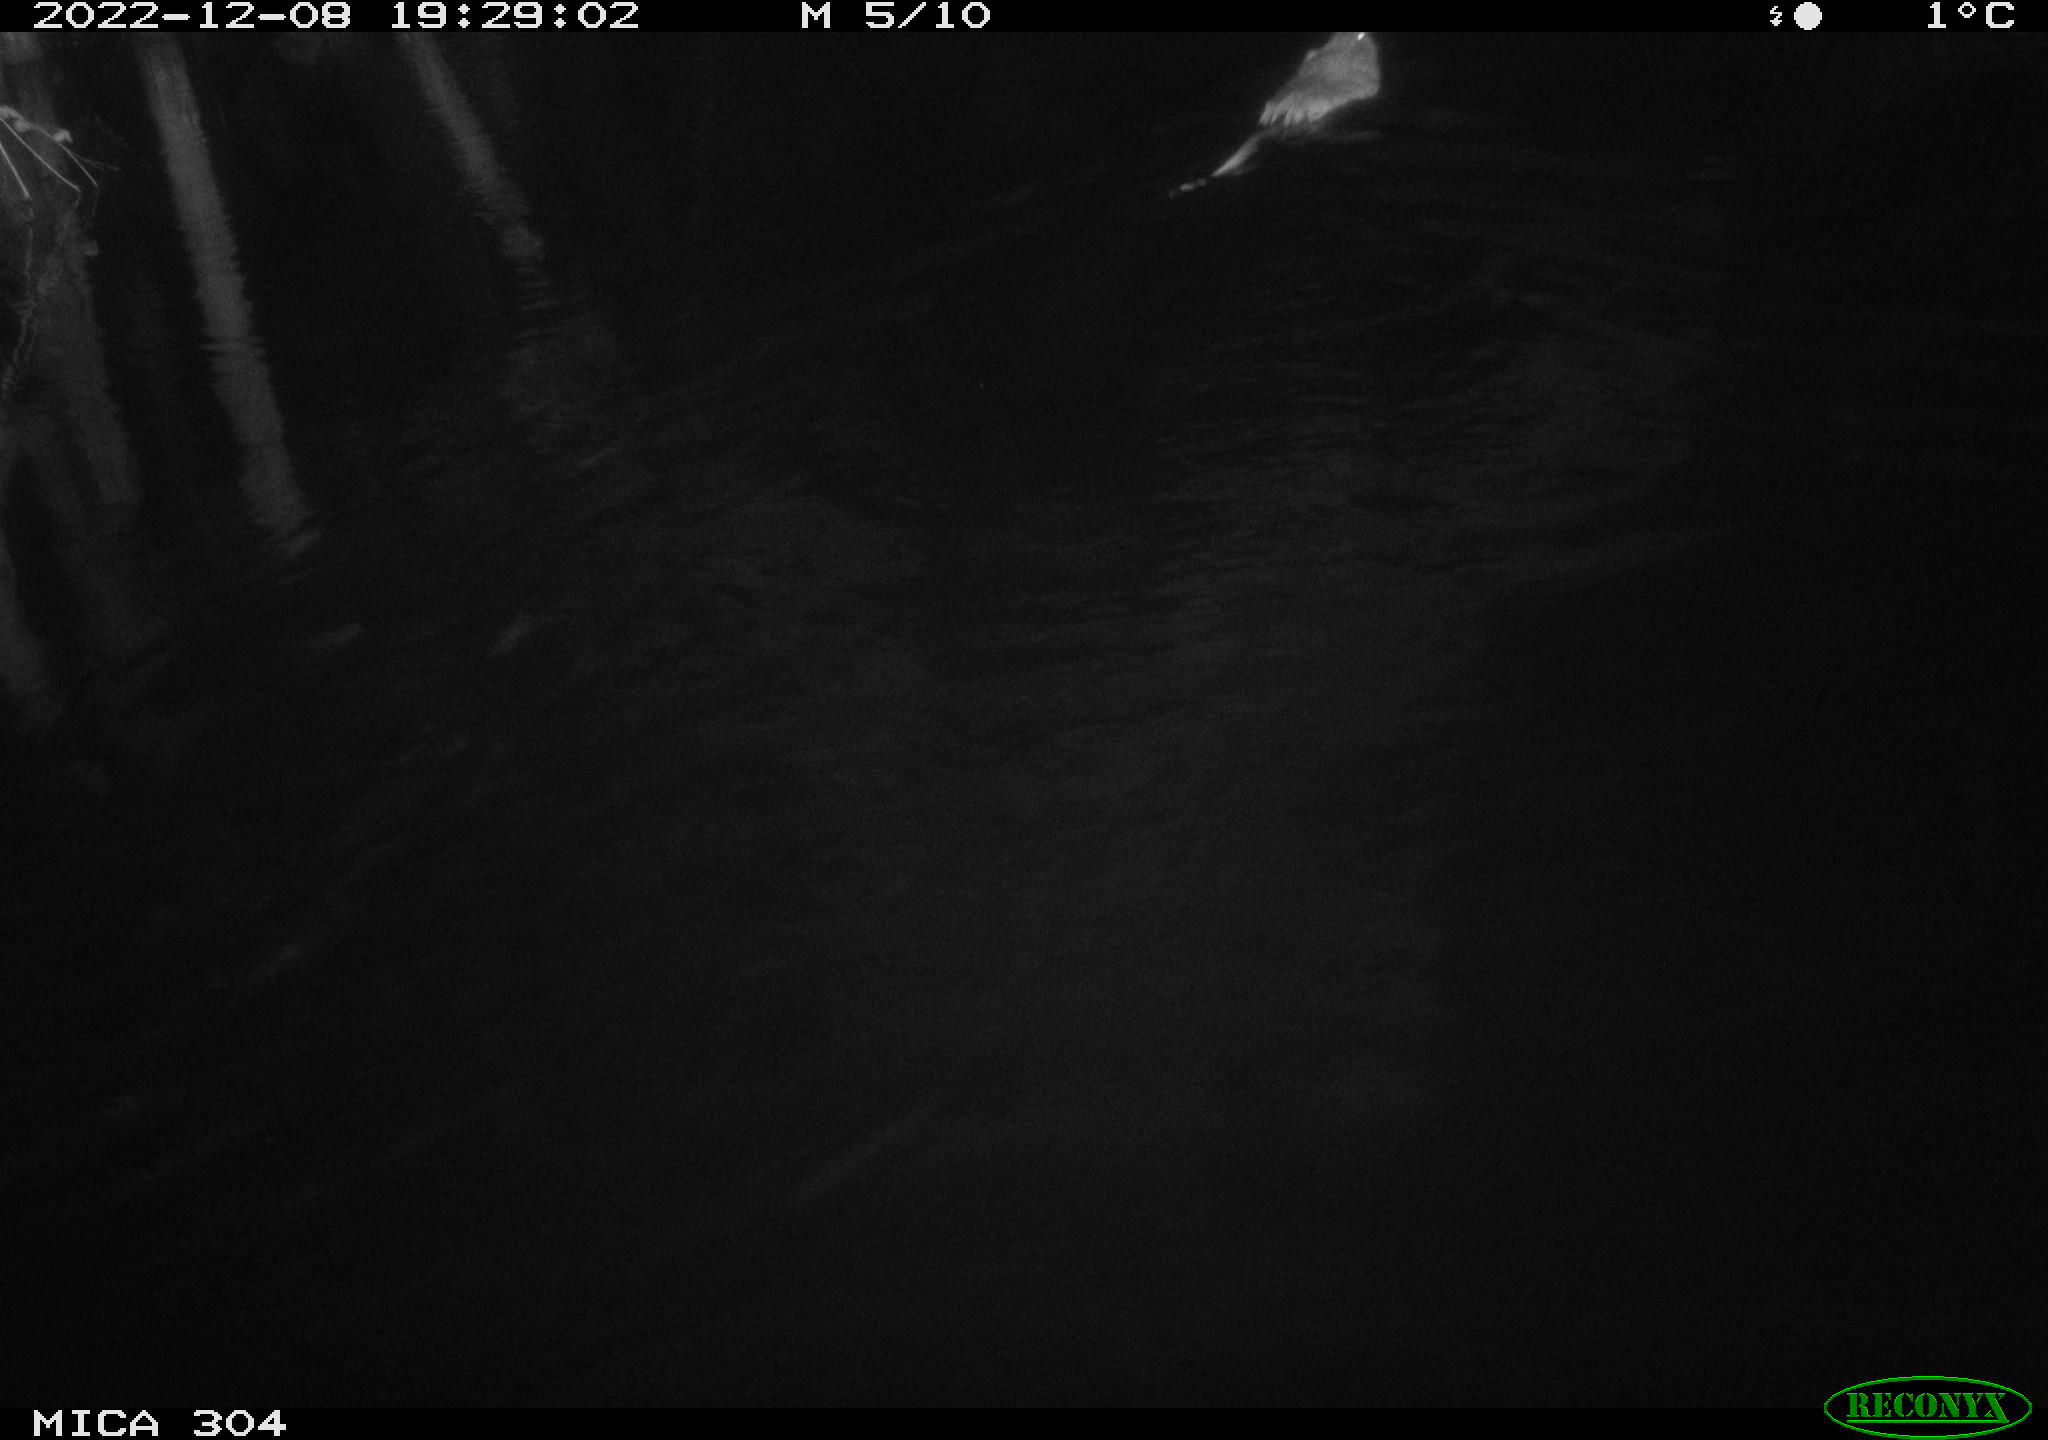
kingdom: Animalia
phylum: Chordata
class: Mammalia
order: Rodentia
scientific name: Rodentia
